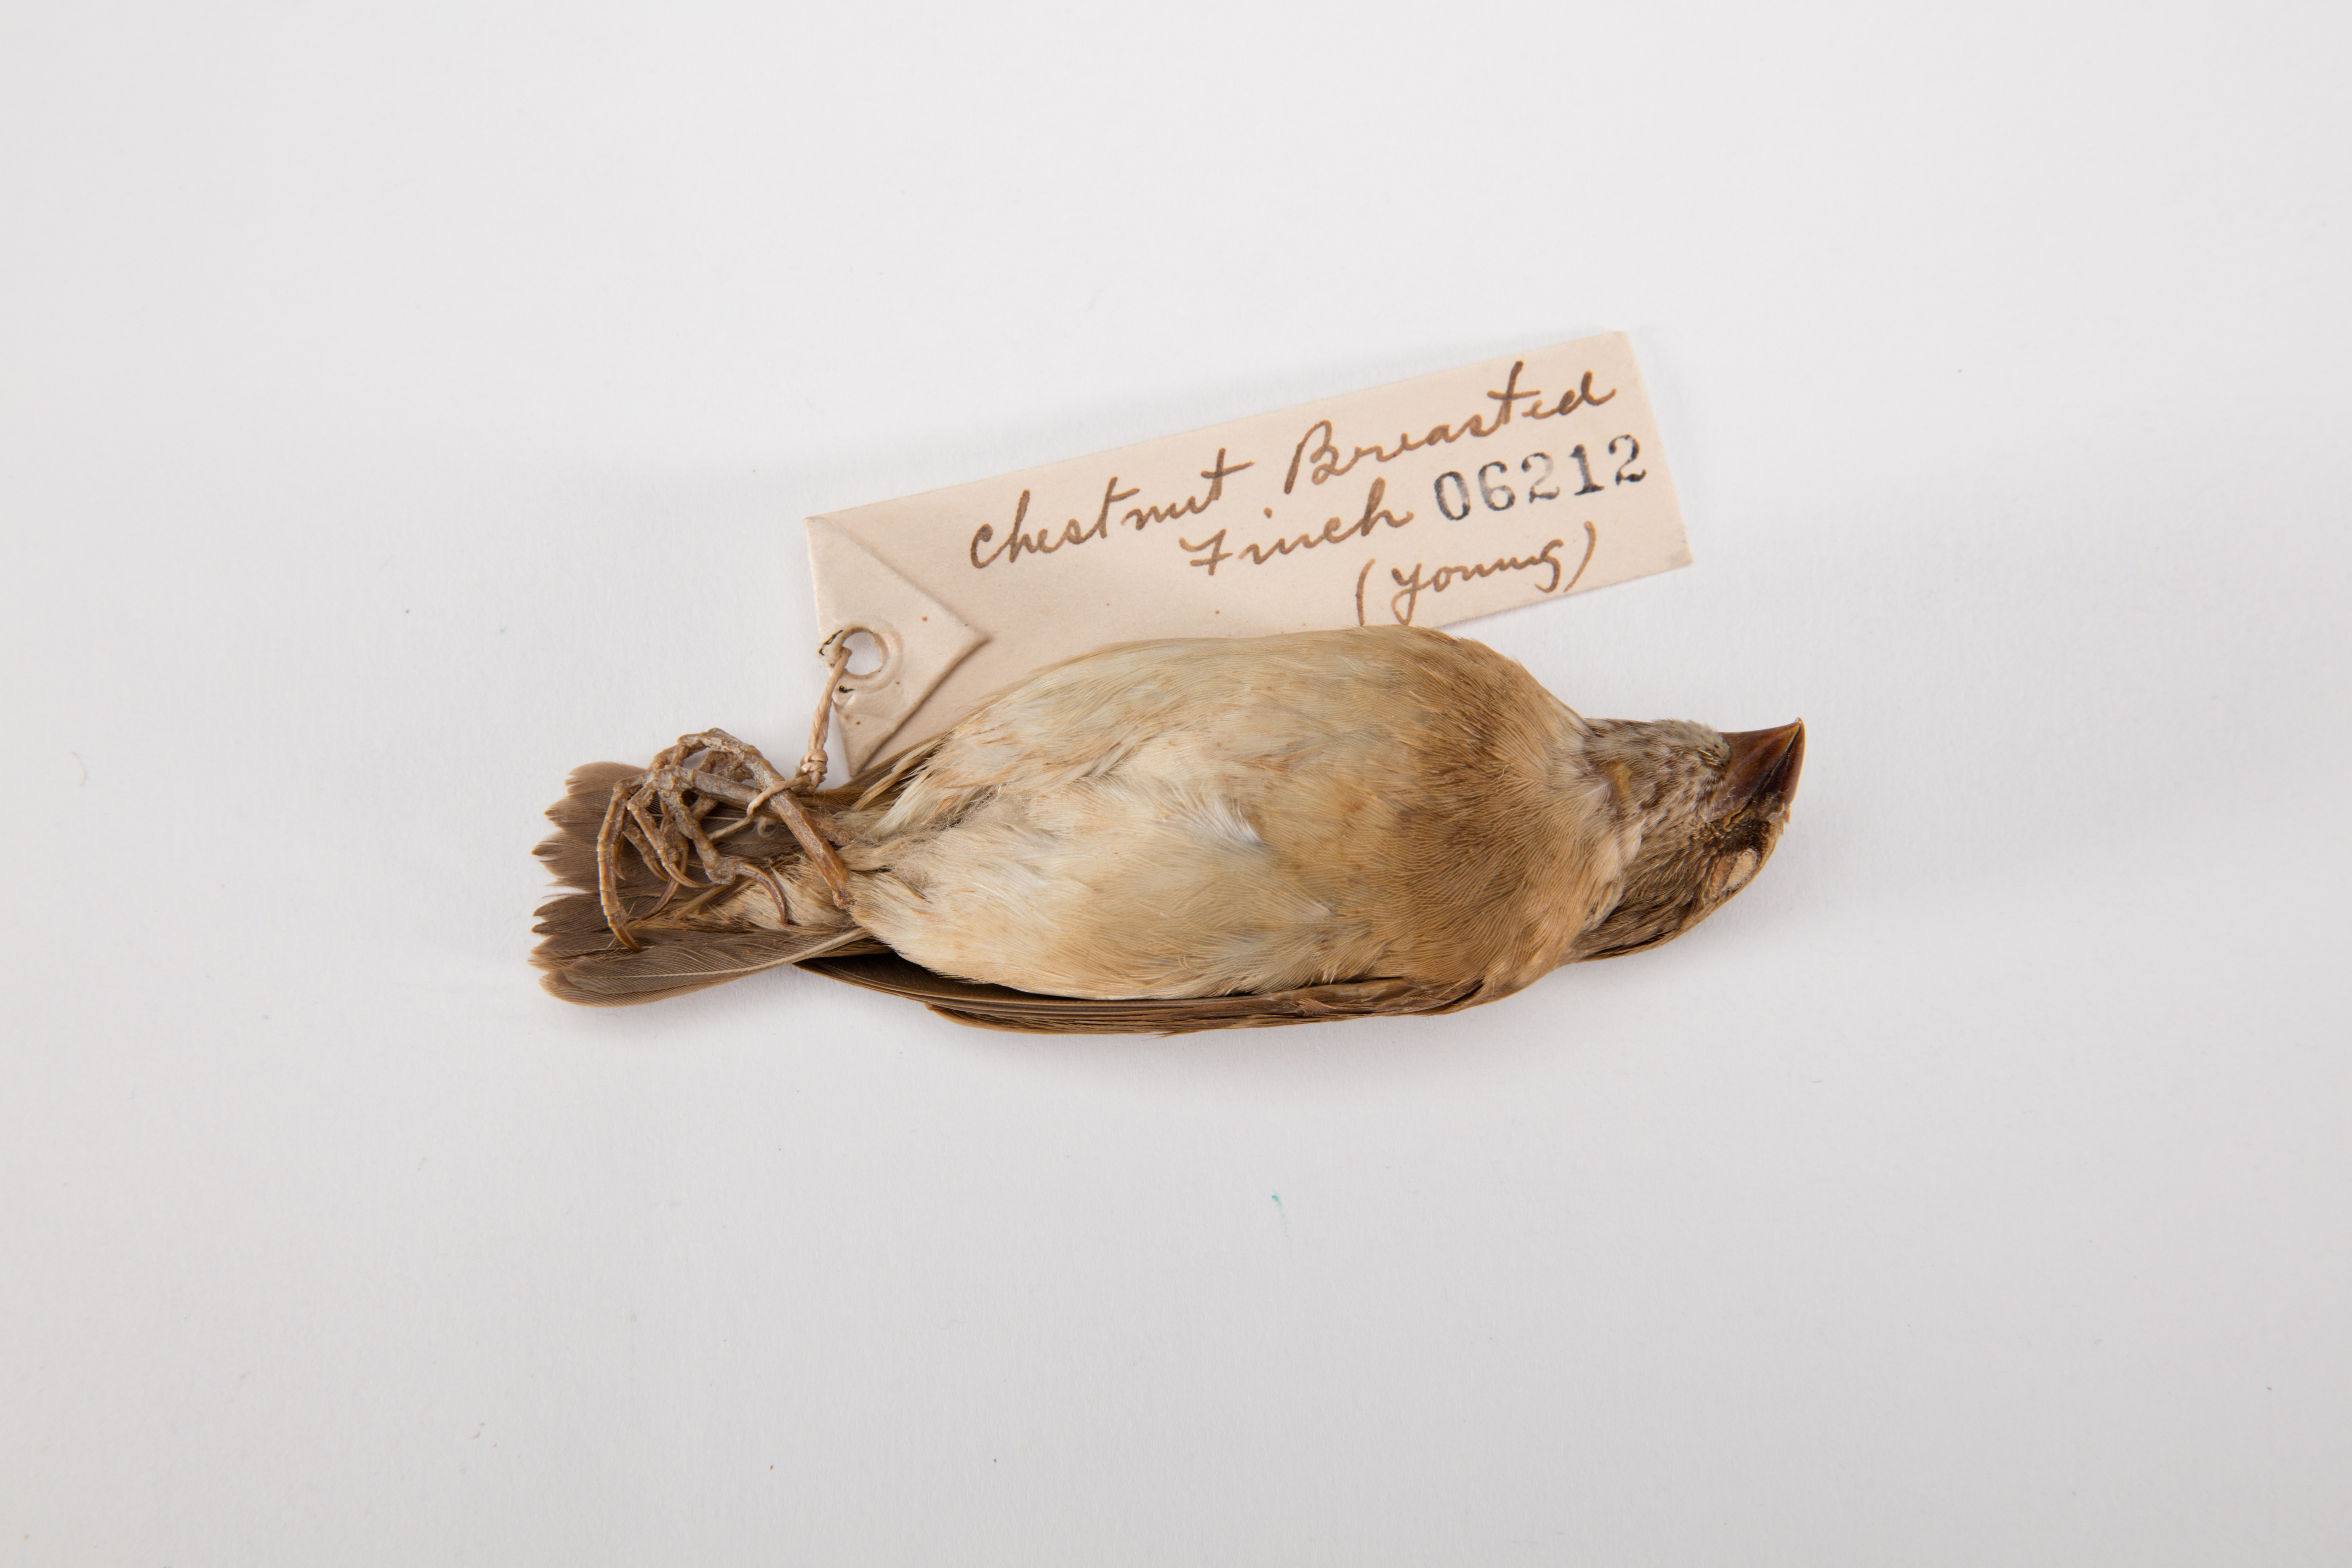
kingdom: Animalia
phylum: Chordata
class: Aves
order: Passeriformes
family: Estrildidae
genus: Lonchura
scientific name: Lonchura castaneothorax
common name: Chestnut-breasted mannikin
